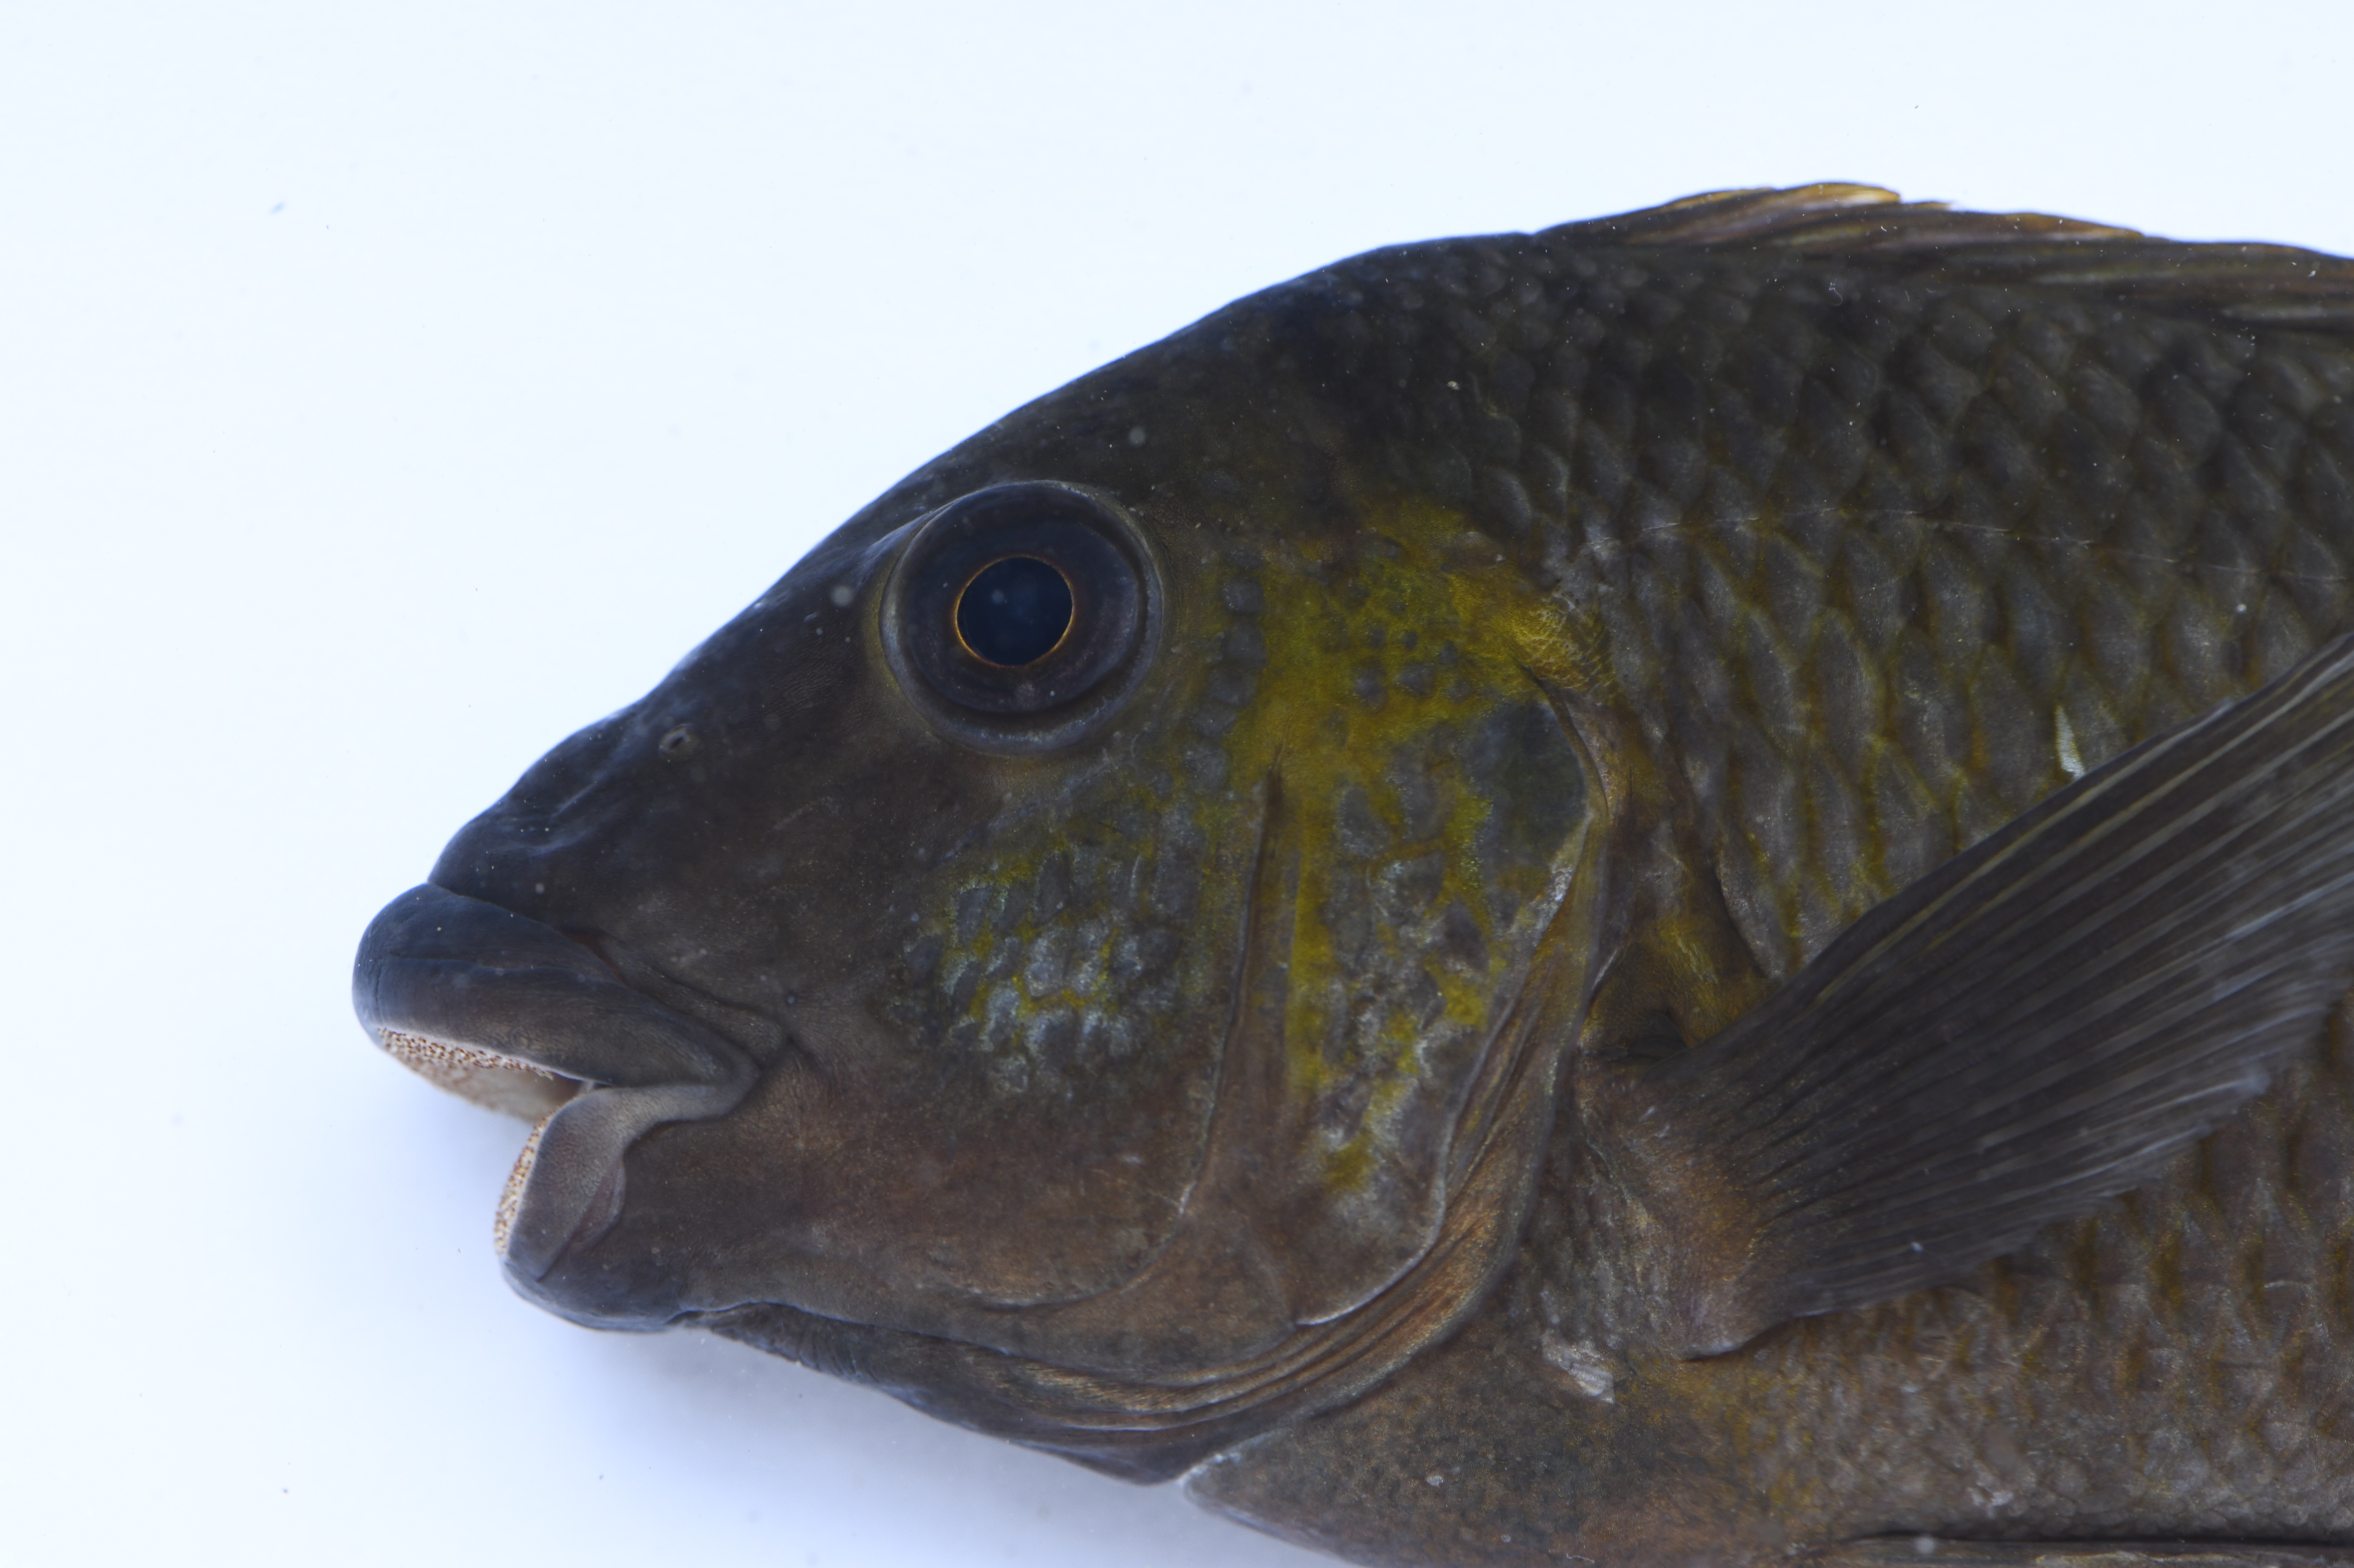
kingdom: Animalia
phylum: Chordata
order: Perciformes
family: Cichlidae
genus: Petrochromis
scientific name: Petrochromis polyodon
